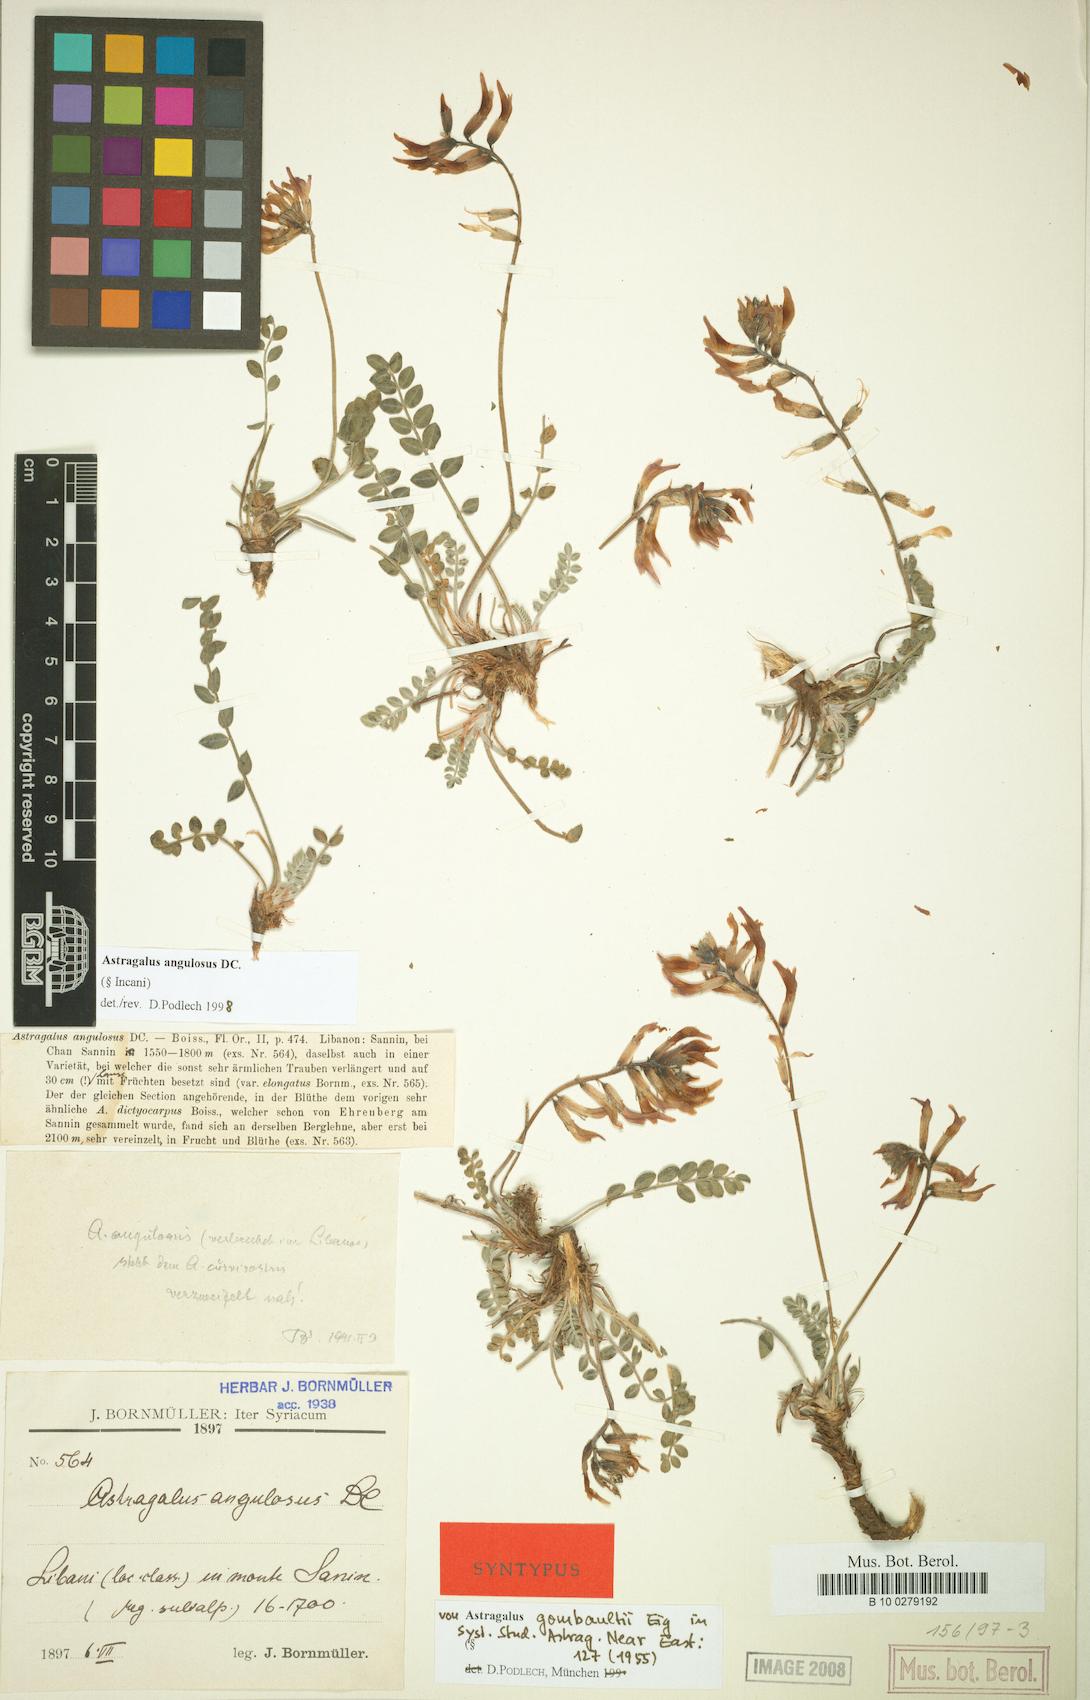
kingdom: Plantae
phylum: Tracheophyta
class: Magnoliopsida
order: Fabales
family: Fabaceae
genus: Astragalus
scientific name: Astragalus angulosus
